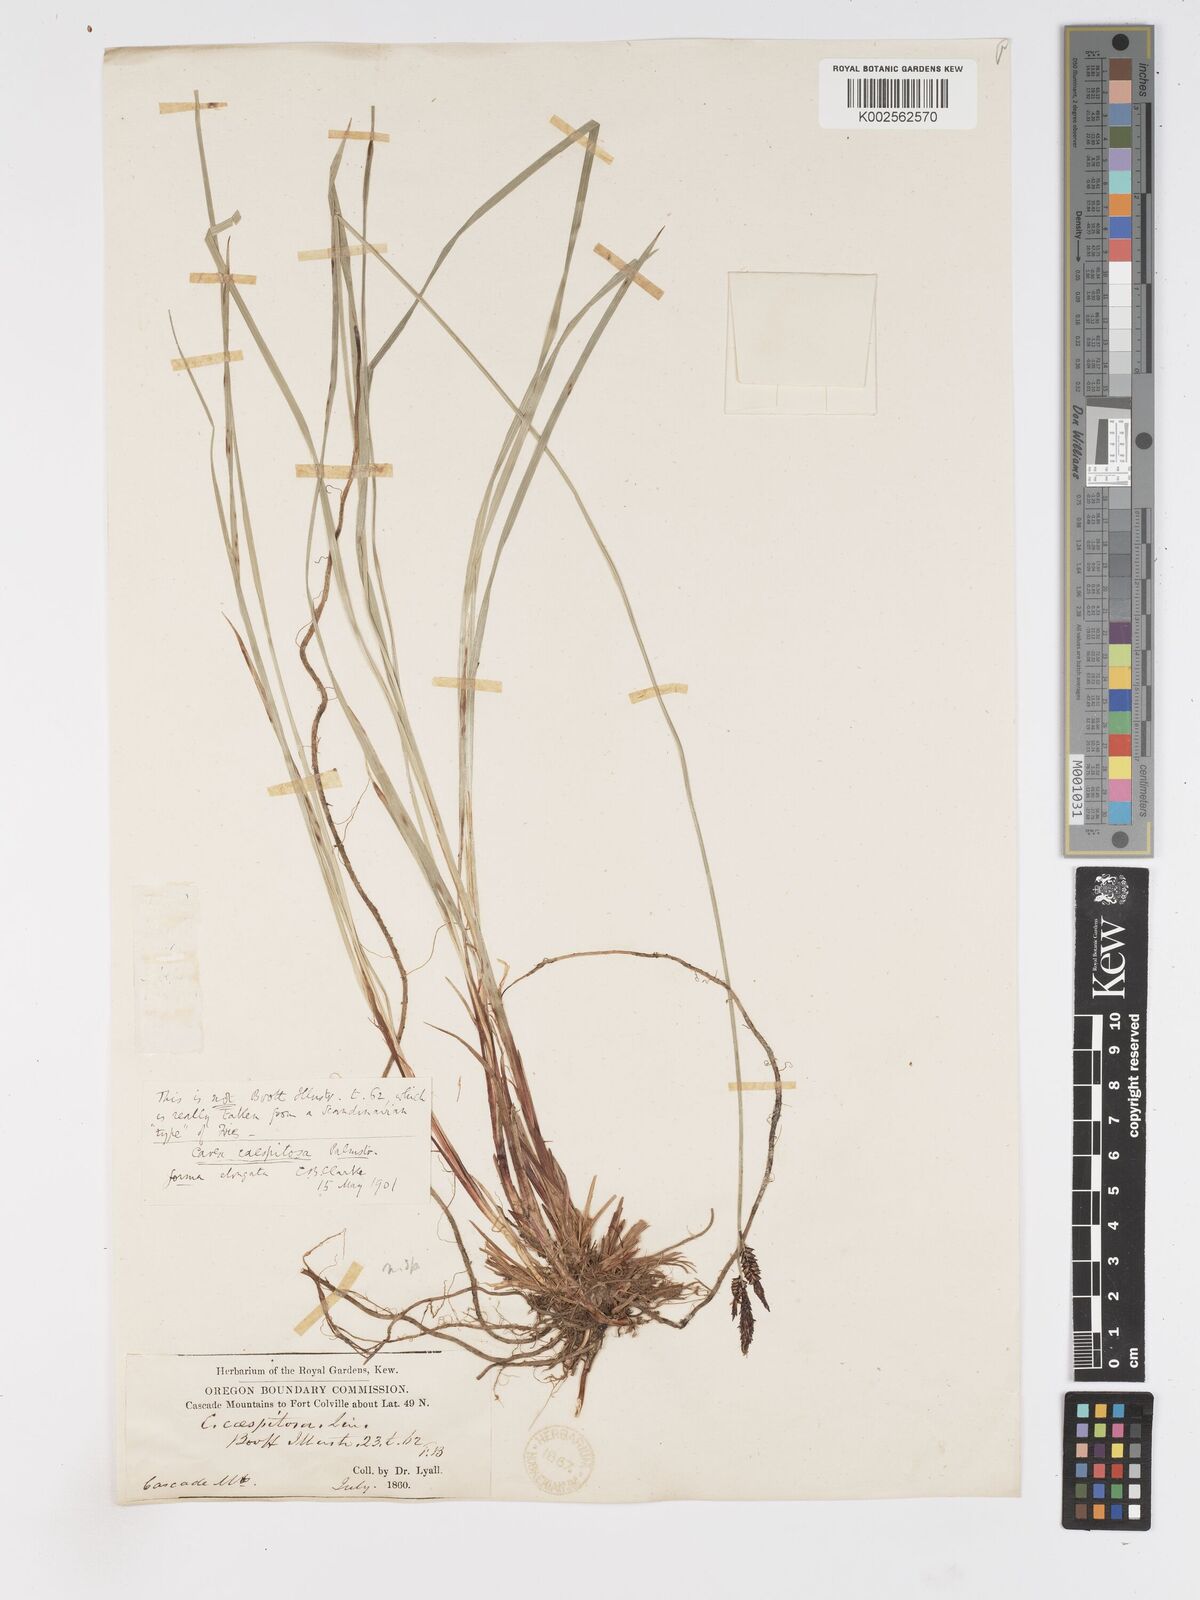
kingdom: Plantae
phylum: Tracheophyta
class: Liliopsida
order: Poales
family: Cyperaceae
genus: Carex
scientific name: Carex bigelowii
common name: Stiff sedge
